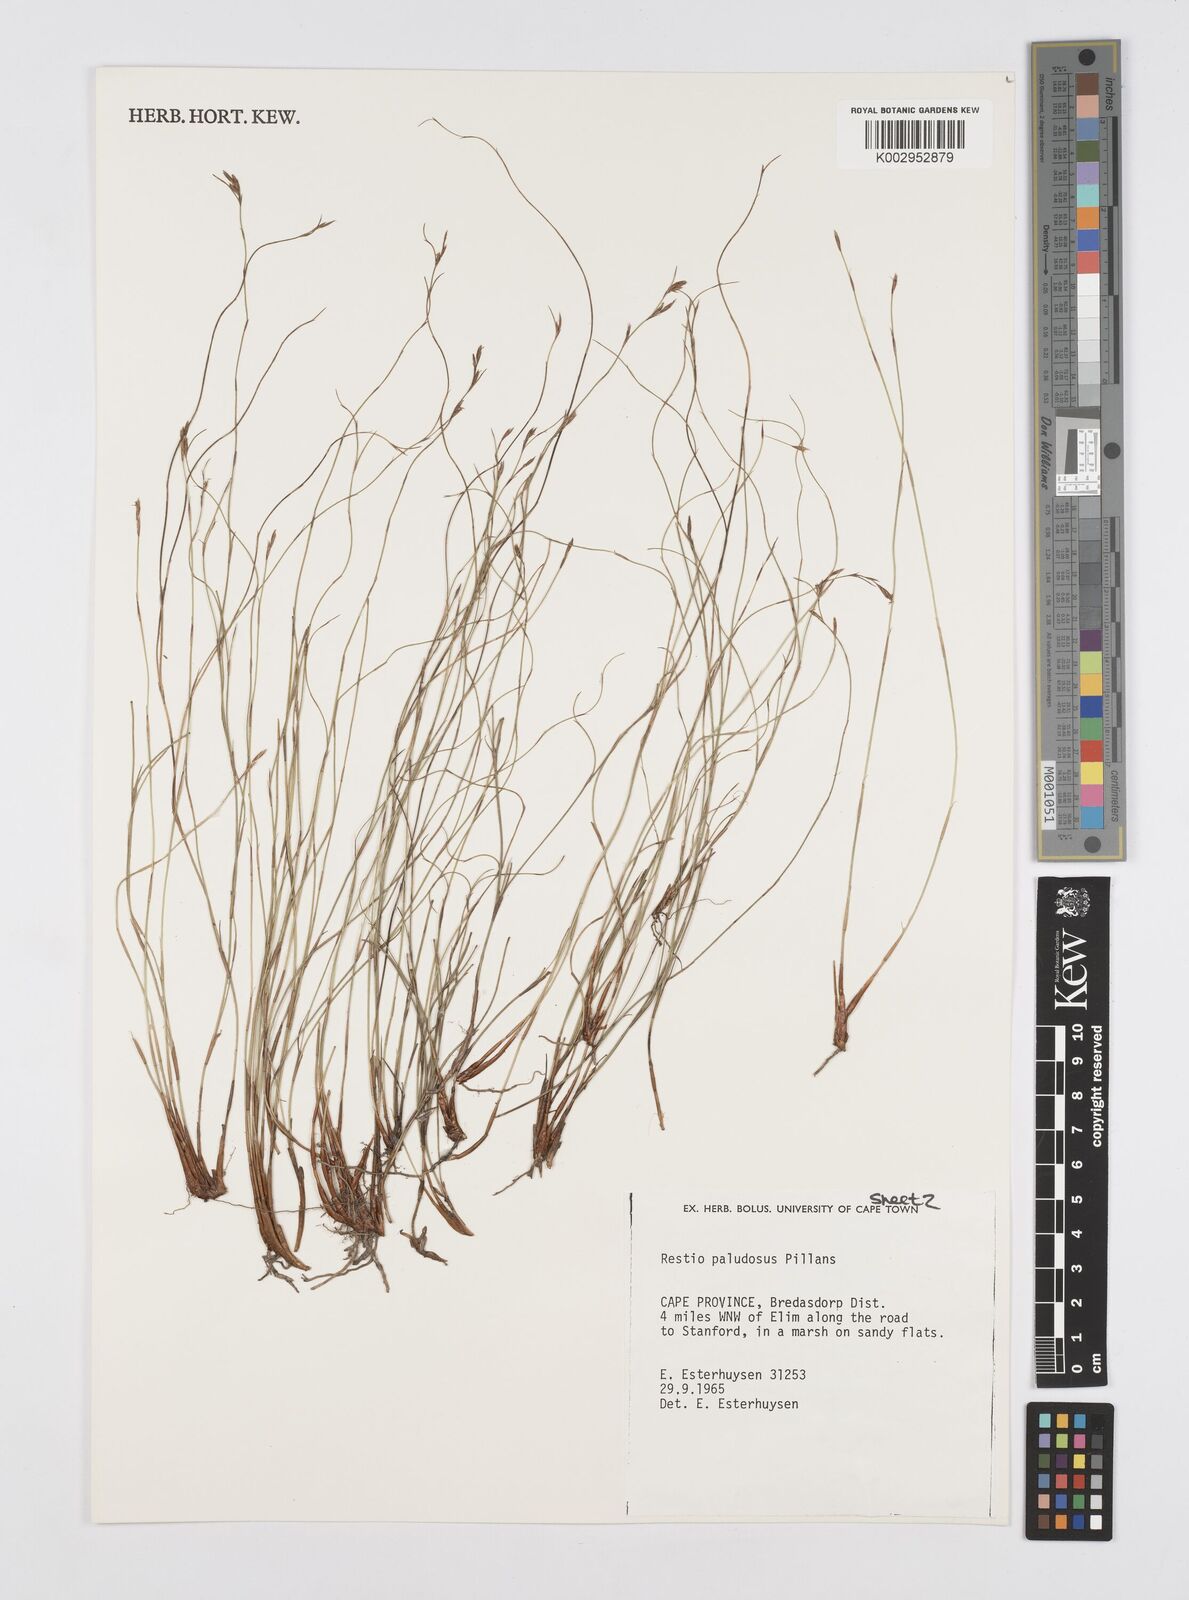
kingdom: Plantae
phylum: Tracheophyta
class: Liliopsida
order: Poales
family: Restionaceae
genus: Restio
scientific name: Restio paludosus
